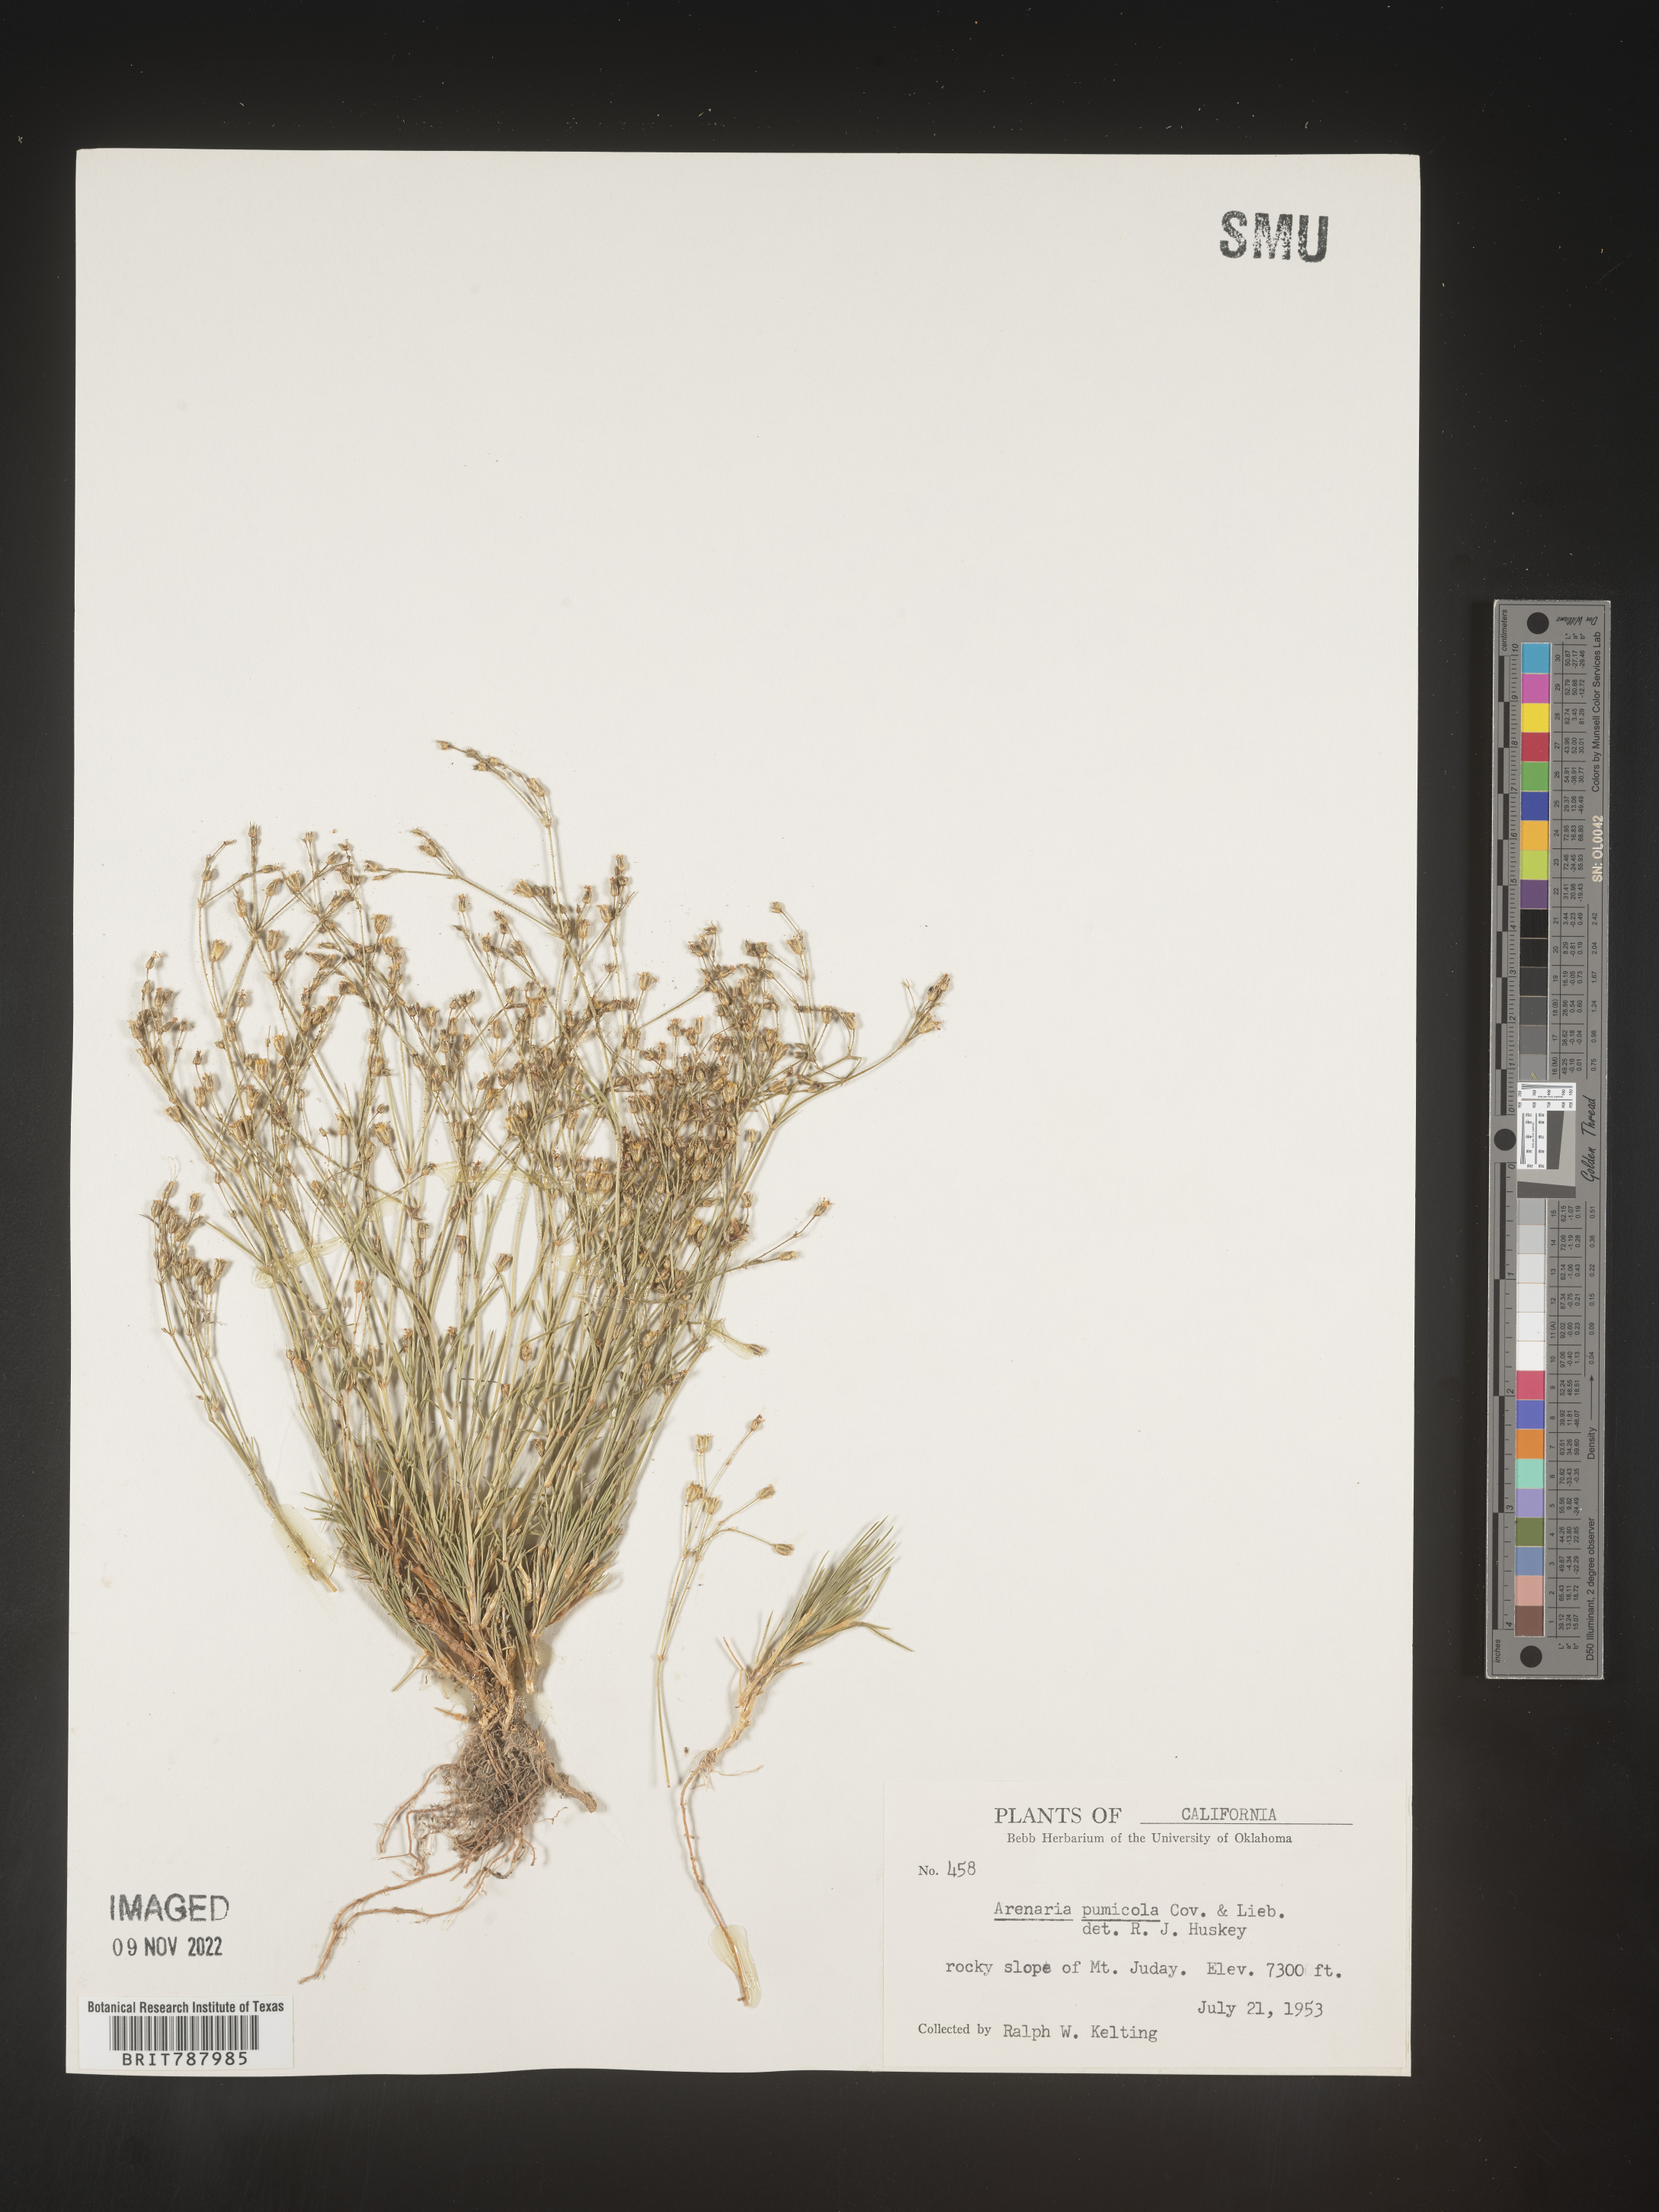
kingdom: Plantae
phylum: Tracheophyta
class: Magnoliopsida
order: Caryophyllales
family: Caryophyllaceae
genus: Arenaria
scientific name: Arenaria
